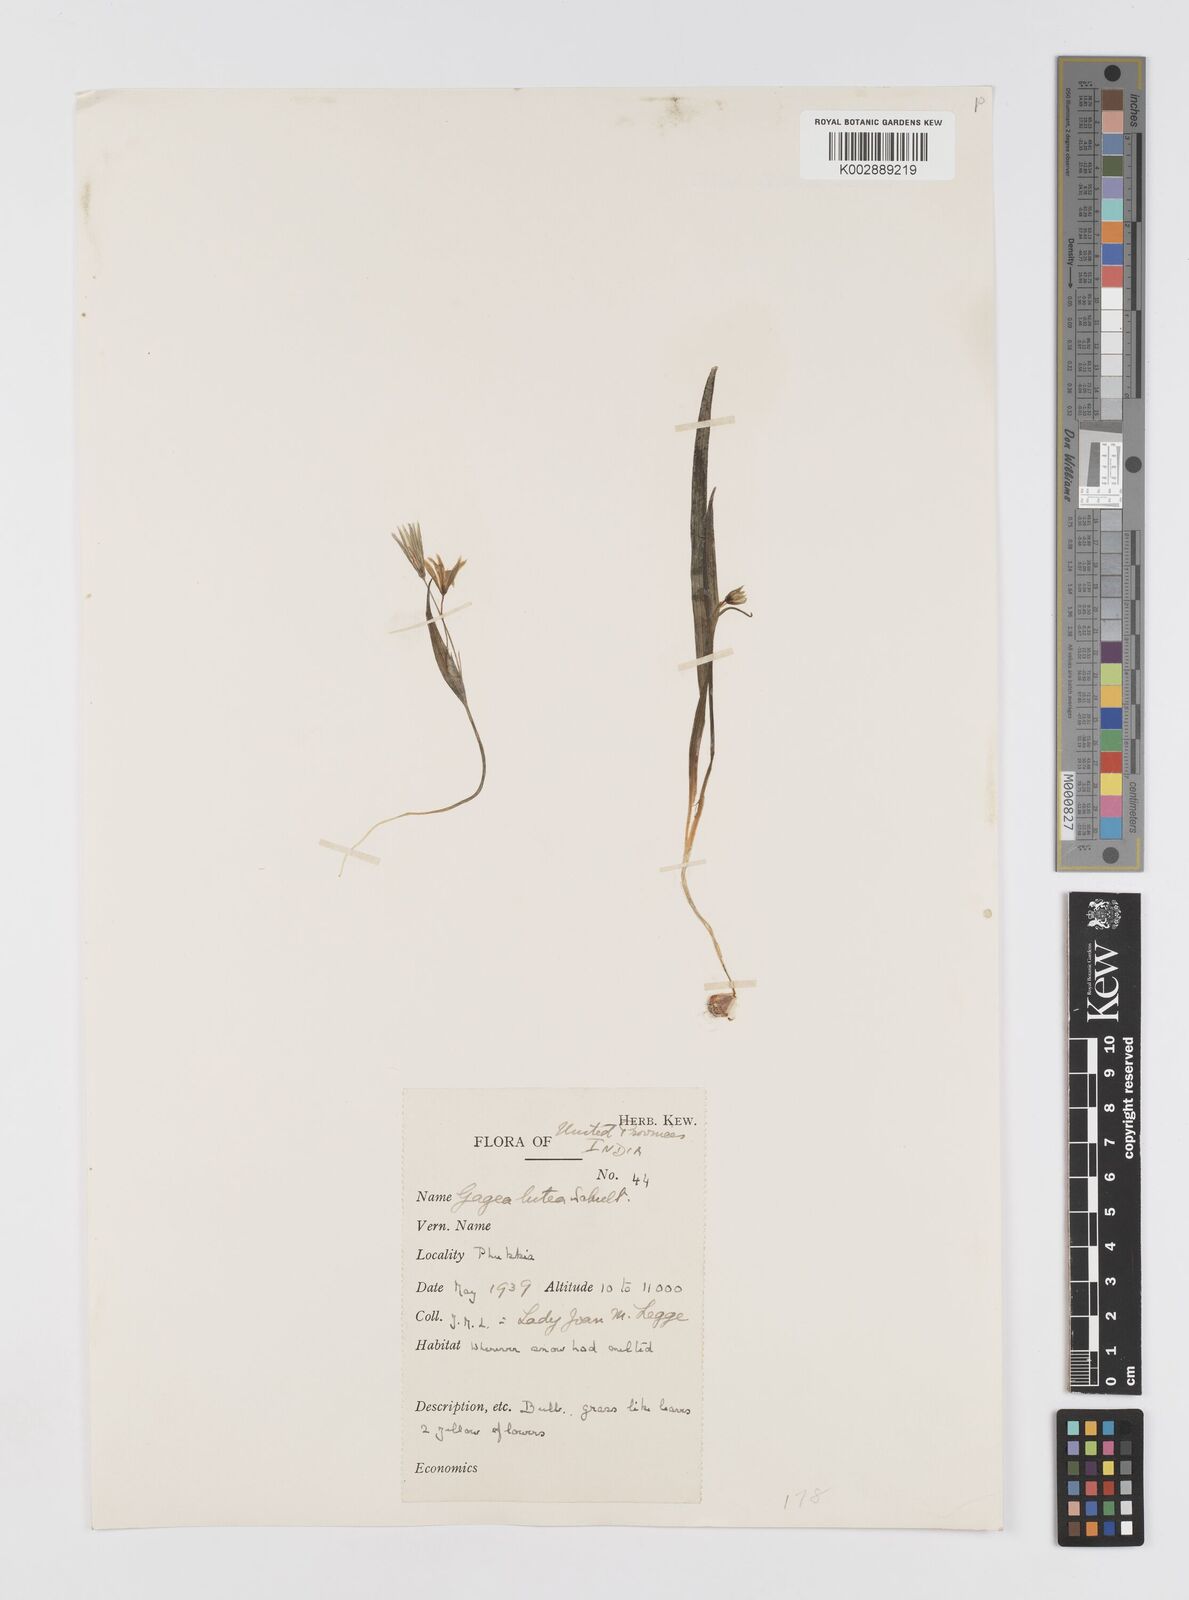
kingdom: Plantae
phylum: Tracheophyta
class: Liliopsida
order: Liliales
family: Liliaceae
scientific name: Liliaceae
